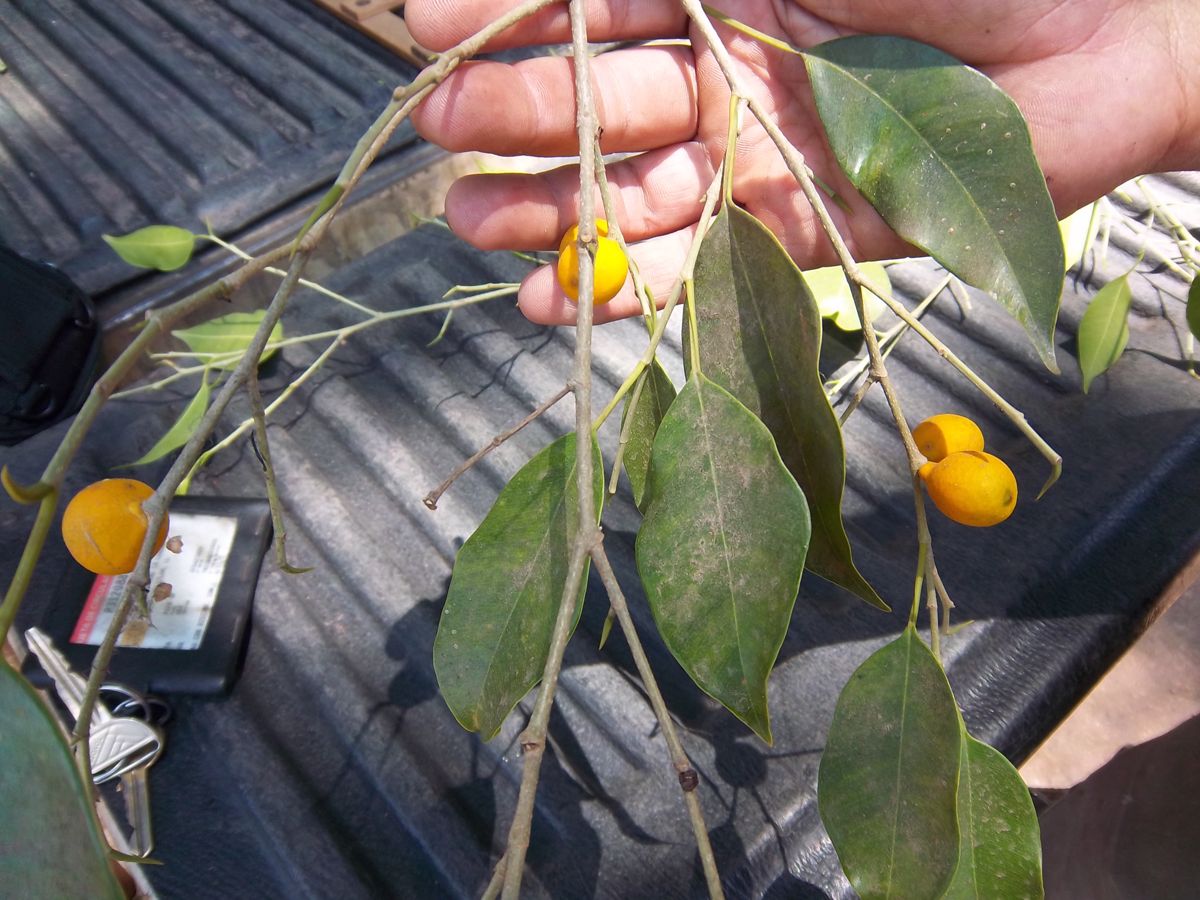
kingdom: Plantae
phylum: Tracheophyta
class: Magnoliopsida
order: Rosales
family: Moraceae
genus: Ficus
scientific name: Ficus benjamina
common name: Weeping fig
